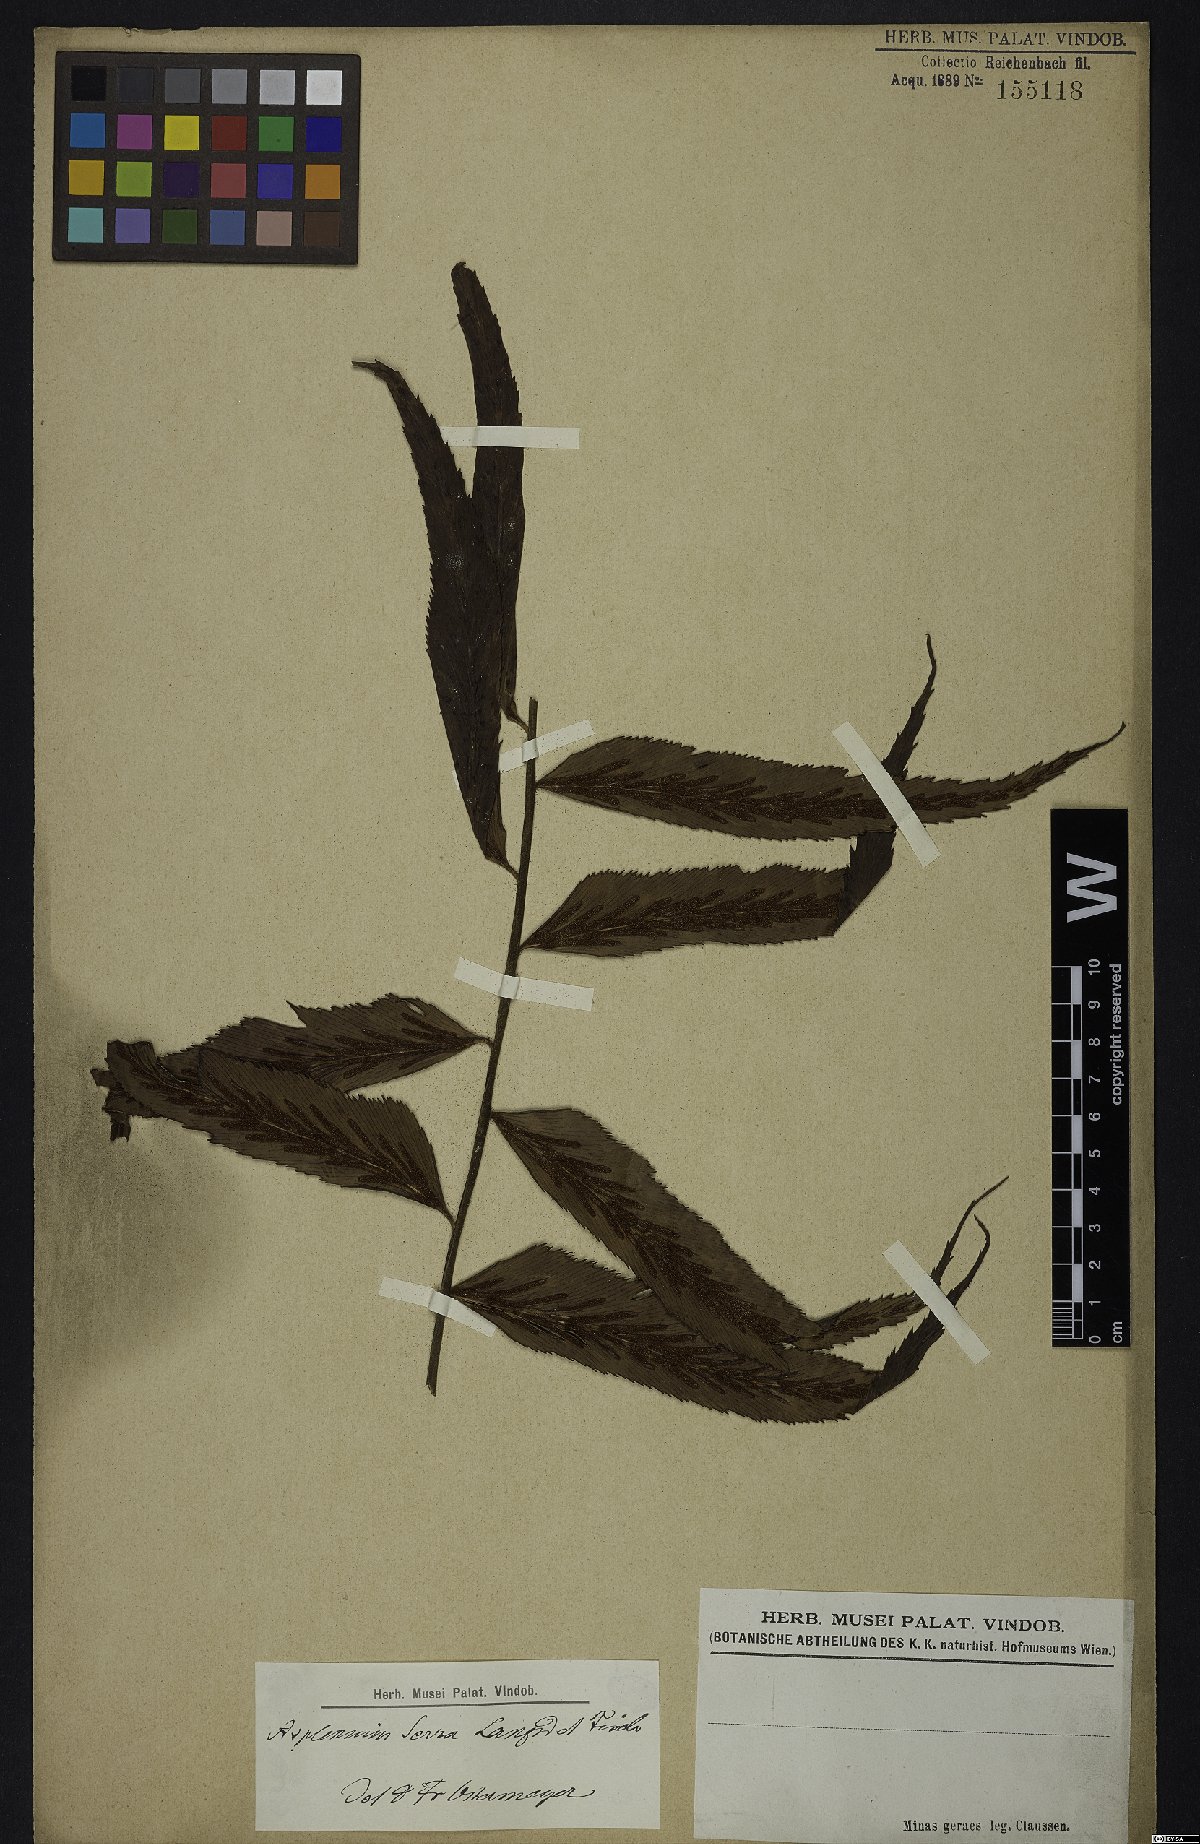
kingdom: Plantae
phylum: Tracheophyta
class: Polypodiopsida
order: Polypodiales
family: Aspleniaceae
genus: Asplenium
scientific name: Asplenium serra
